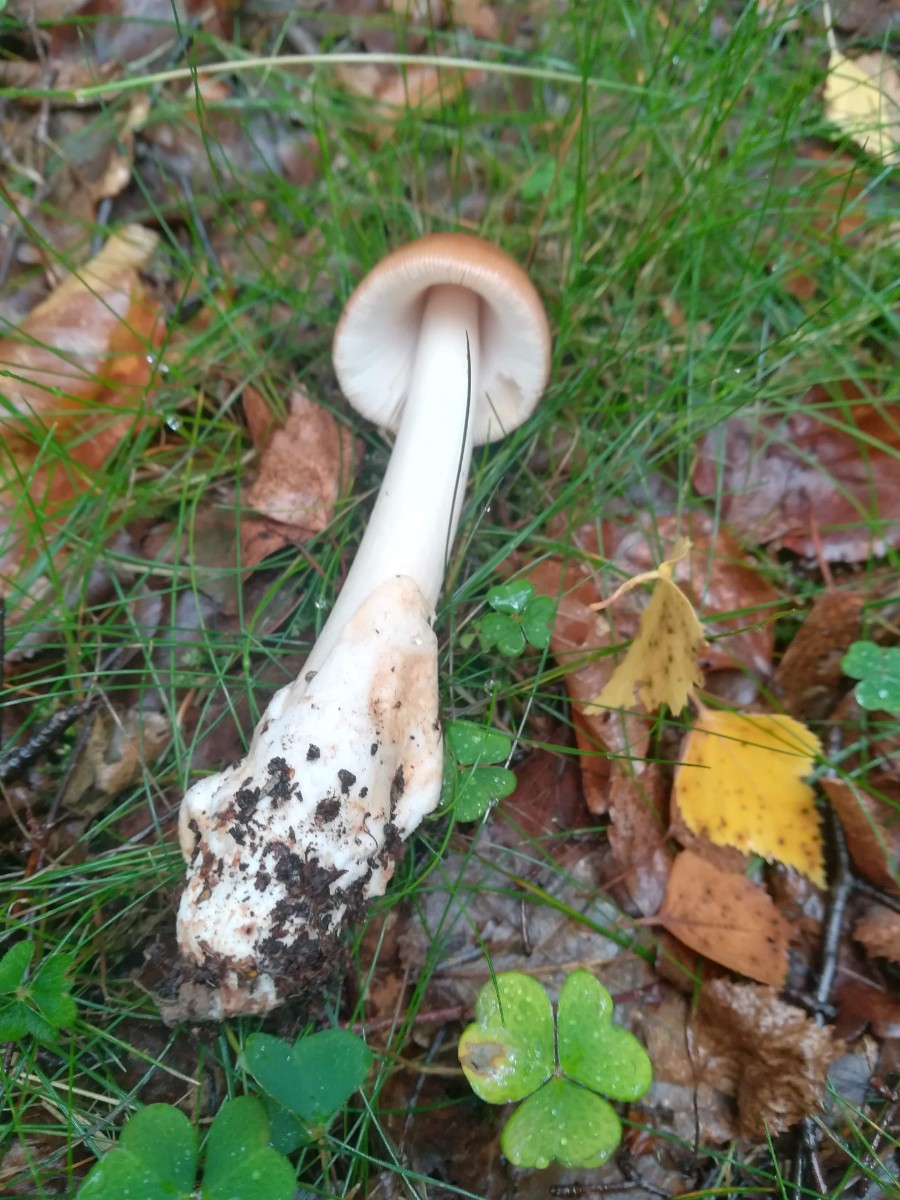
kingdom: Fungi
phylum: Basidiomycota
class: Agaricomycetes
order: Agaricales
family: Amanitaceae
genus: Amanita
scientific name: Amanita fulva
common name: brun kam-fluesvamp
